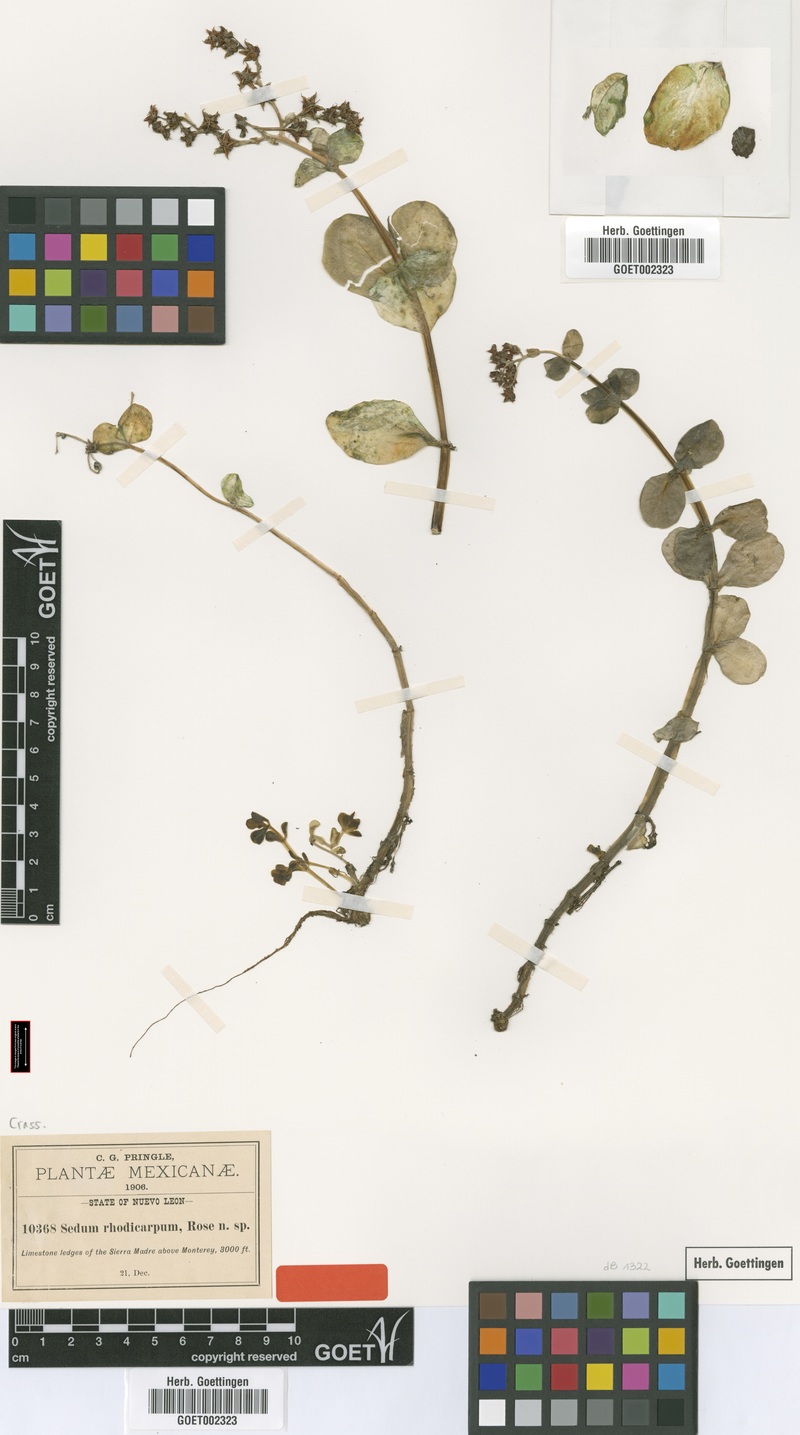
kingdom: Plantae
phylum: Tracheophyta
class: Magnoliopsida
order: Saxifragales
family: Crassulaceae
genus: Sedum
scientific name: Sedum rhodocarpum
